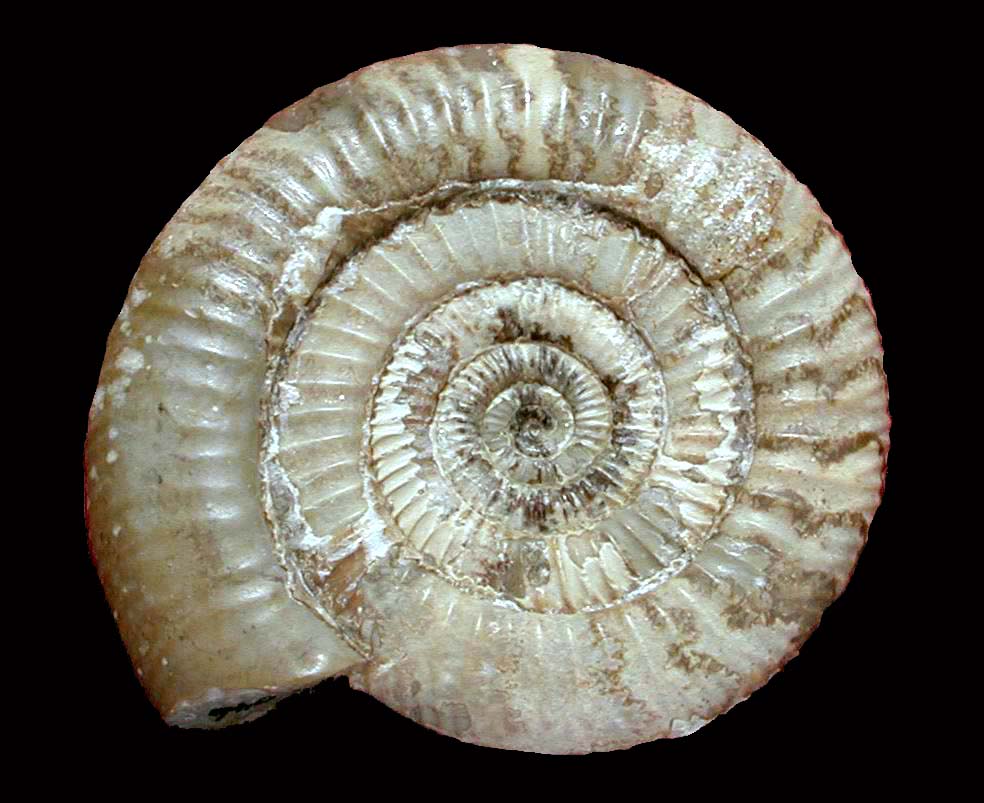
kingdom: Animalia
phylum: Mollusca
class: Cephalopoda
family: Dactylioceratidae
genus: Dactylioceras
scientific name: Dactylioceras athleticum
